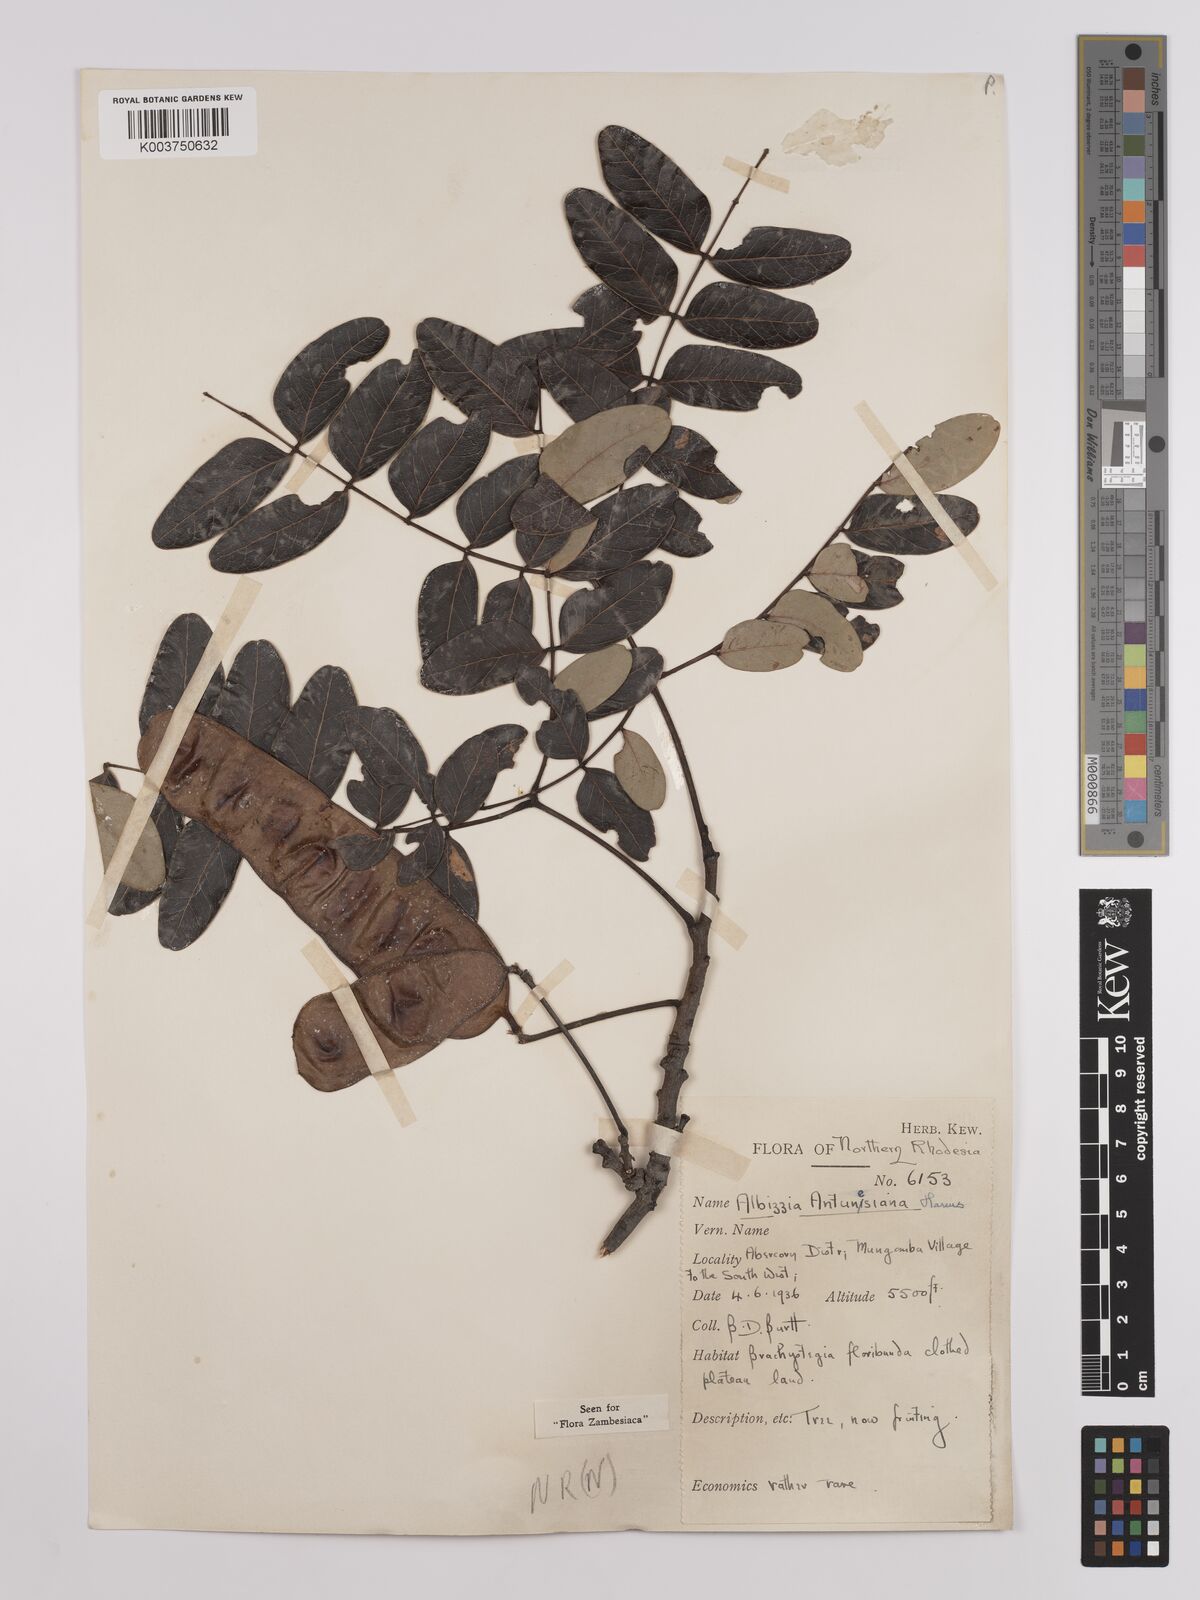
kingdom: Plantae
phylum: Tracheophyta
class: Magnoliopsida
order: Fabales
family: Fabaceae
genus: Albizia
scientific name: Albizia antunesiana
